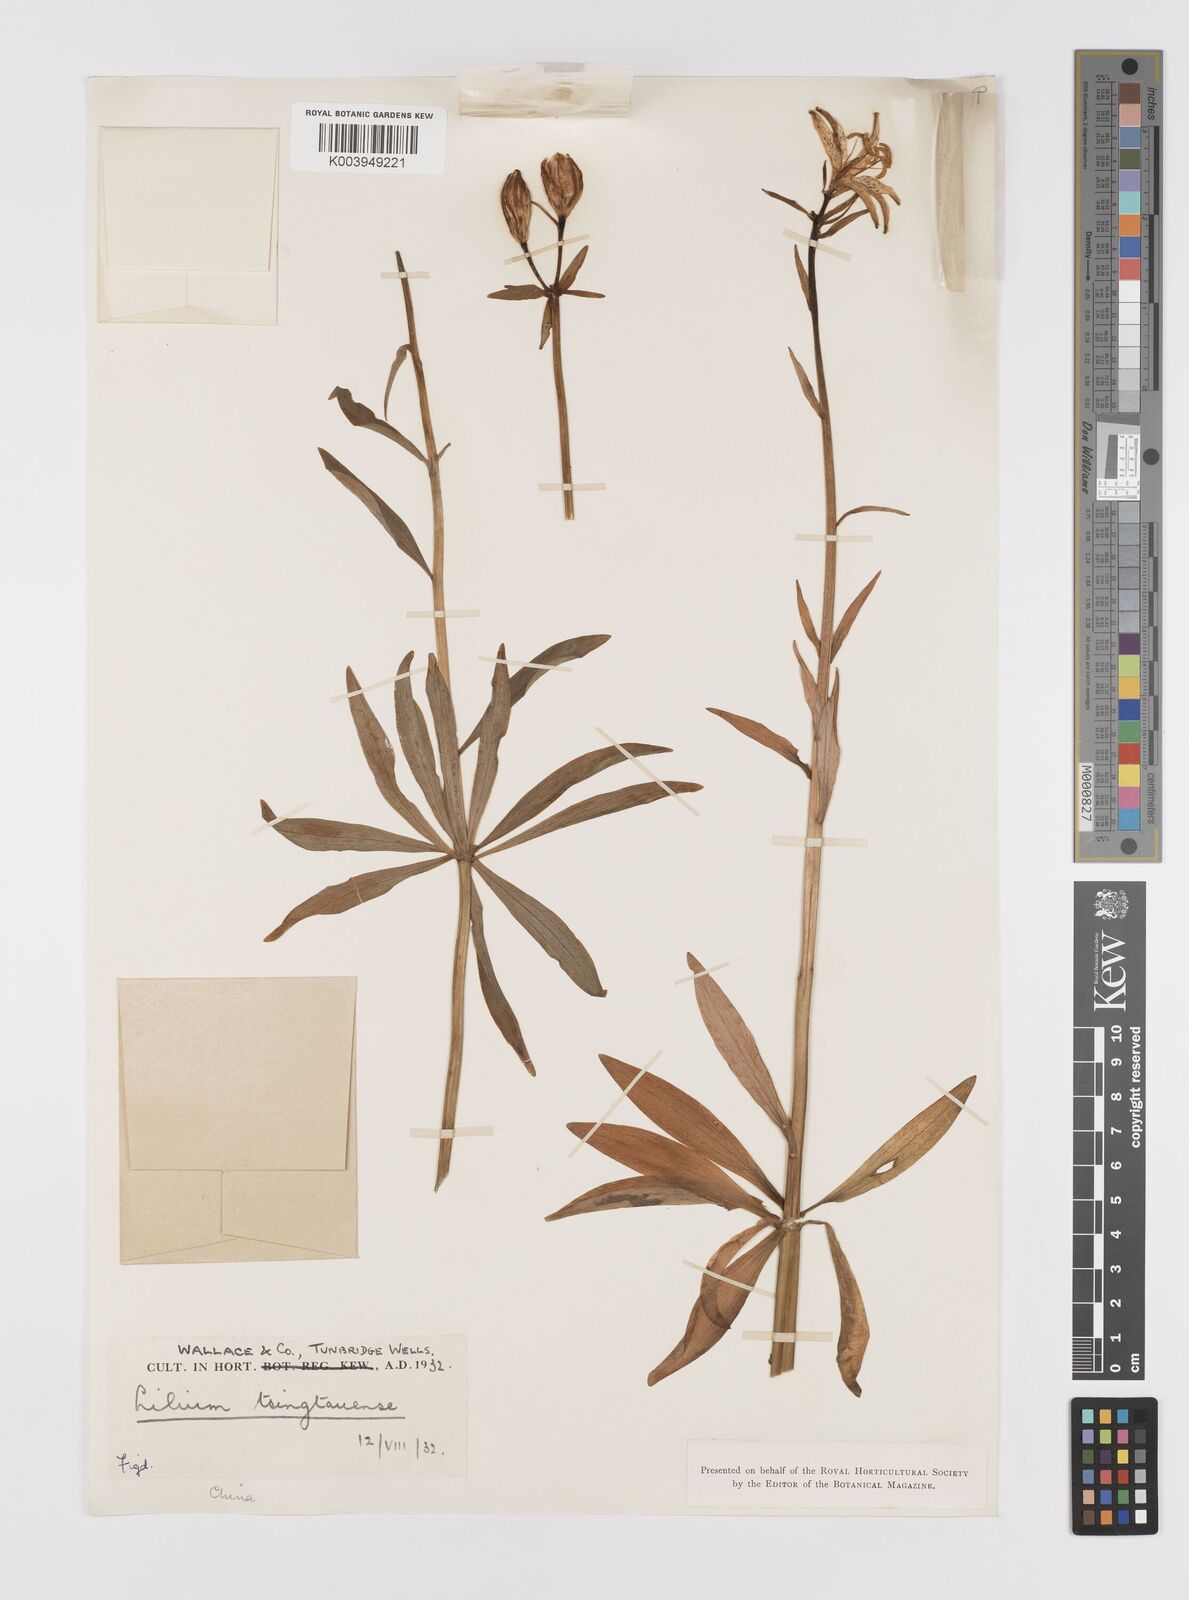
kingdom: Plantae
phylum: Tracheophyta
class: Liliopsida
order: Liliales
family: Liliaceae
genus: Lilium
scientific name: Lilium tsingtauense
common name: Korean wheel lily
